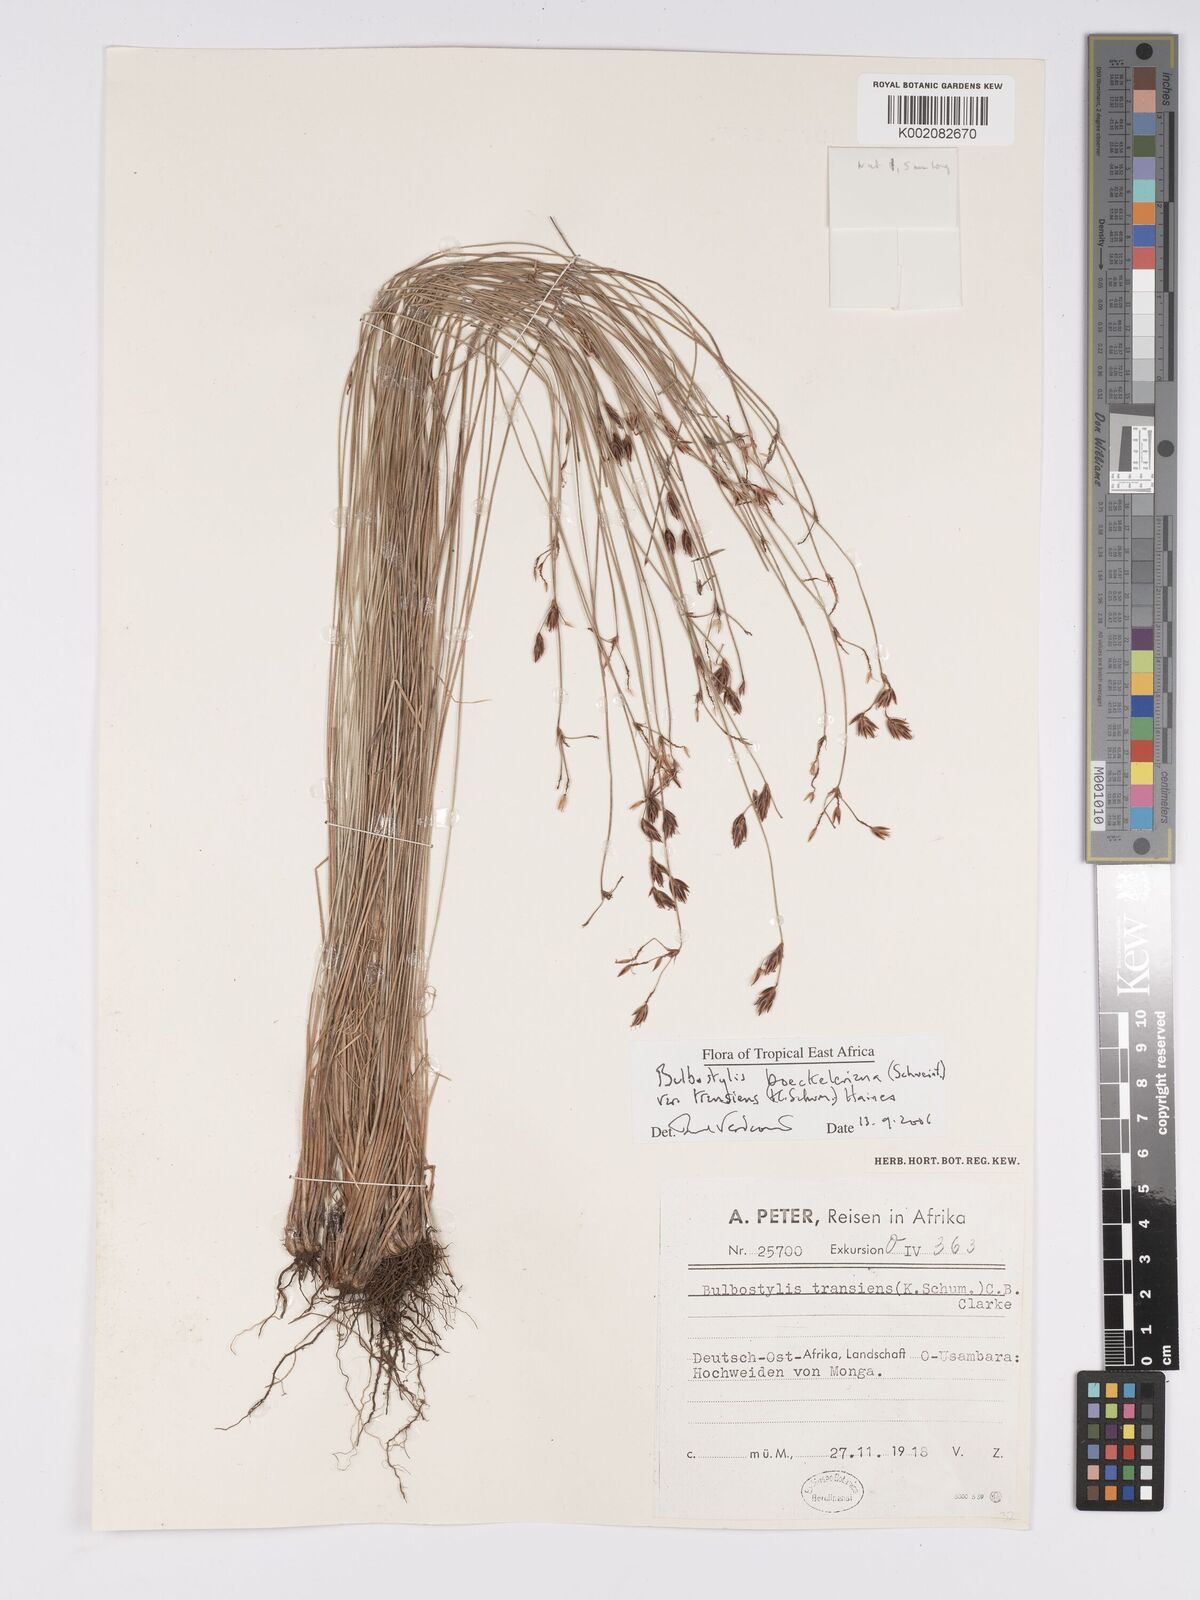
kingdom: Plantae
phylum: Tracheophyta
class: Liliopsida
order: Poales
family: Cyperaceae
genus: Bulbostylis
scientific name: Bulbostylis boeckeleriana
